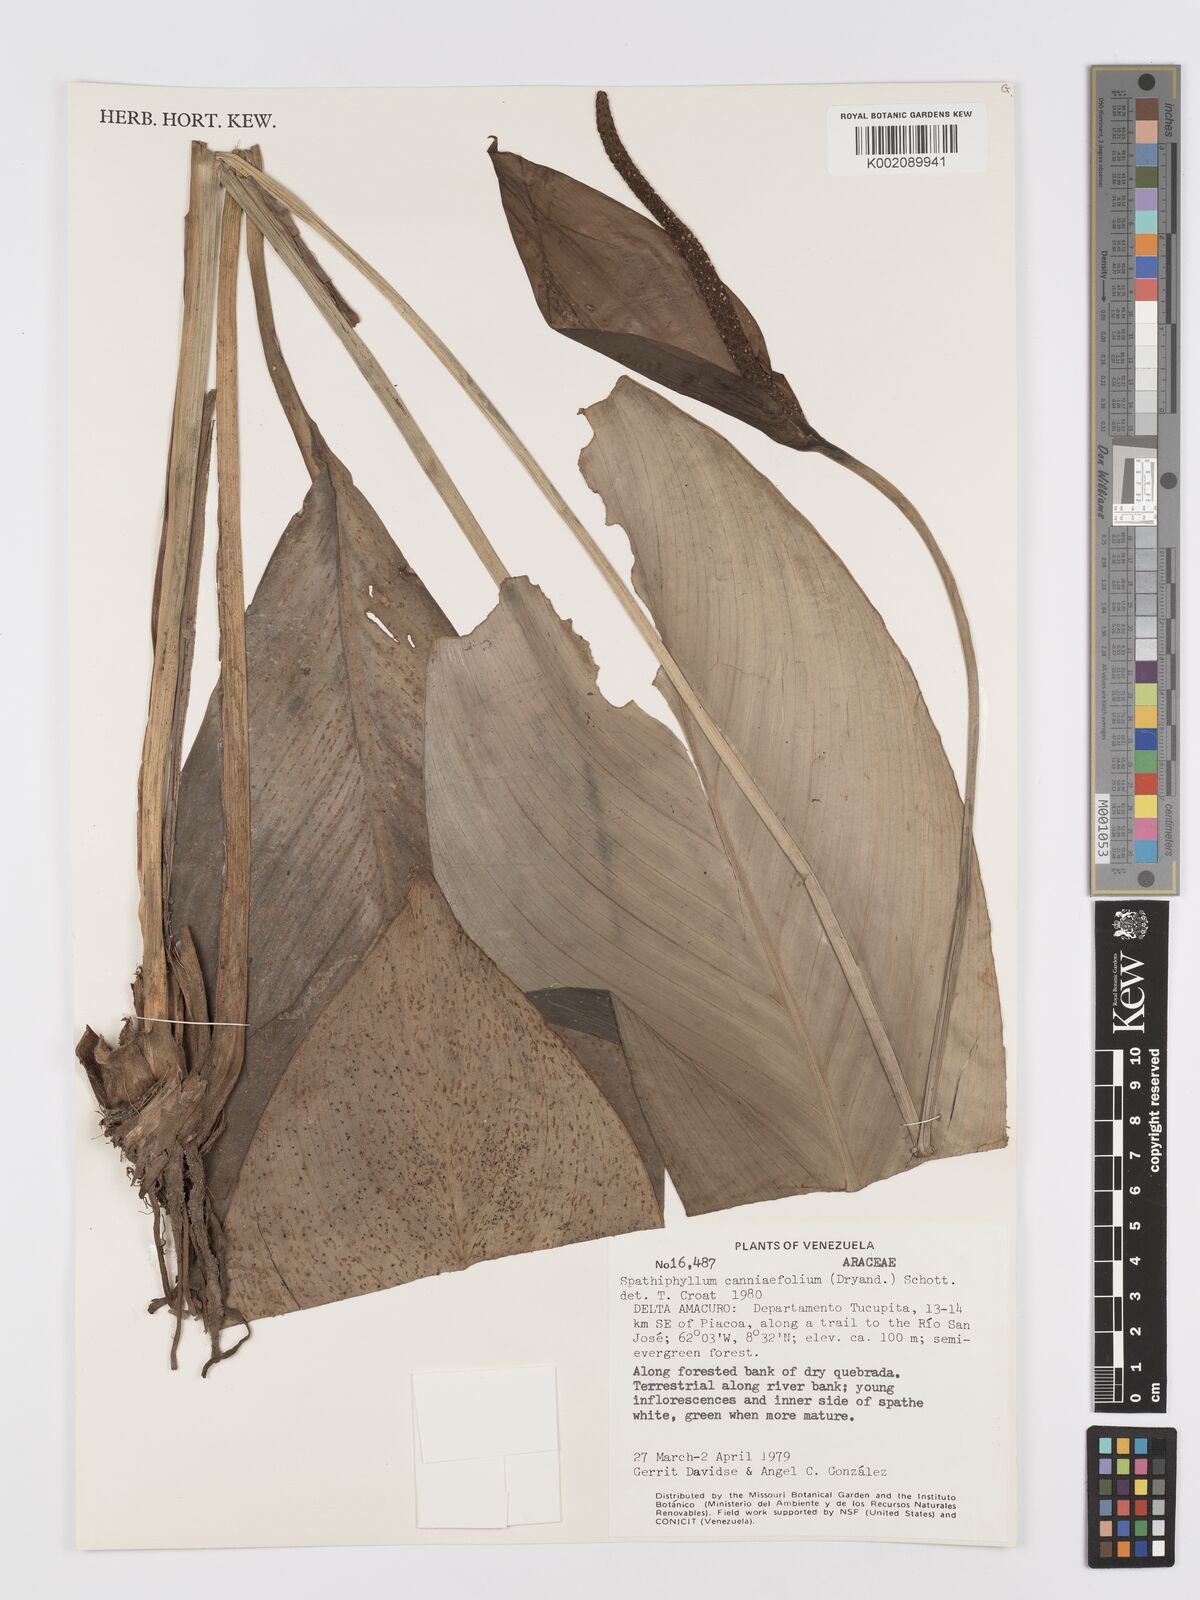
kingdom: Plantae
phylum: Tracheophyta
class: Liliopsida
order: Alismatales
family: Araceae
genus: Spathiphyllum
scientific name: Spathiphyllum cannifolium
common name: Spatheflower
